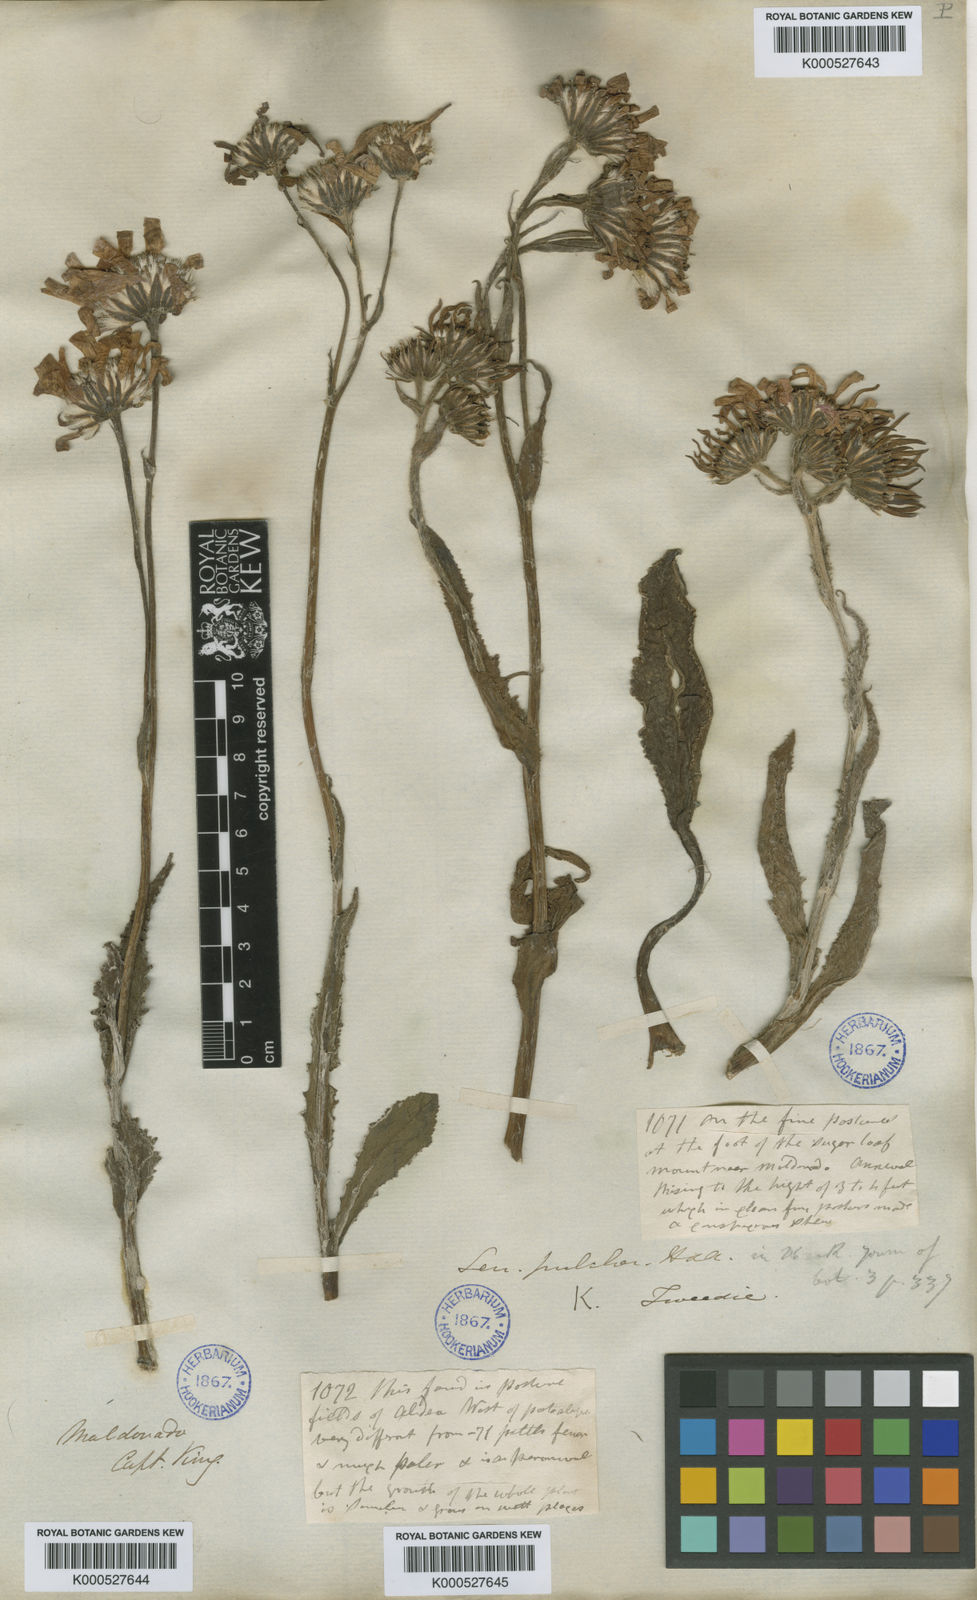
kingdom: Plantae
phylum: Tracheophyta
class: Magnoliopsida
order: Asterales
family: Asteraceae
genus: Senecio
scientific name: Senecio pulcher
